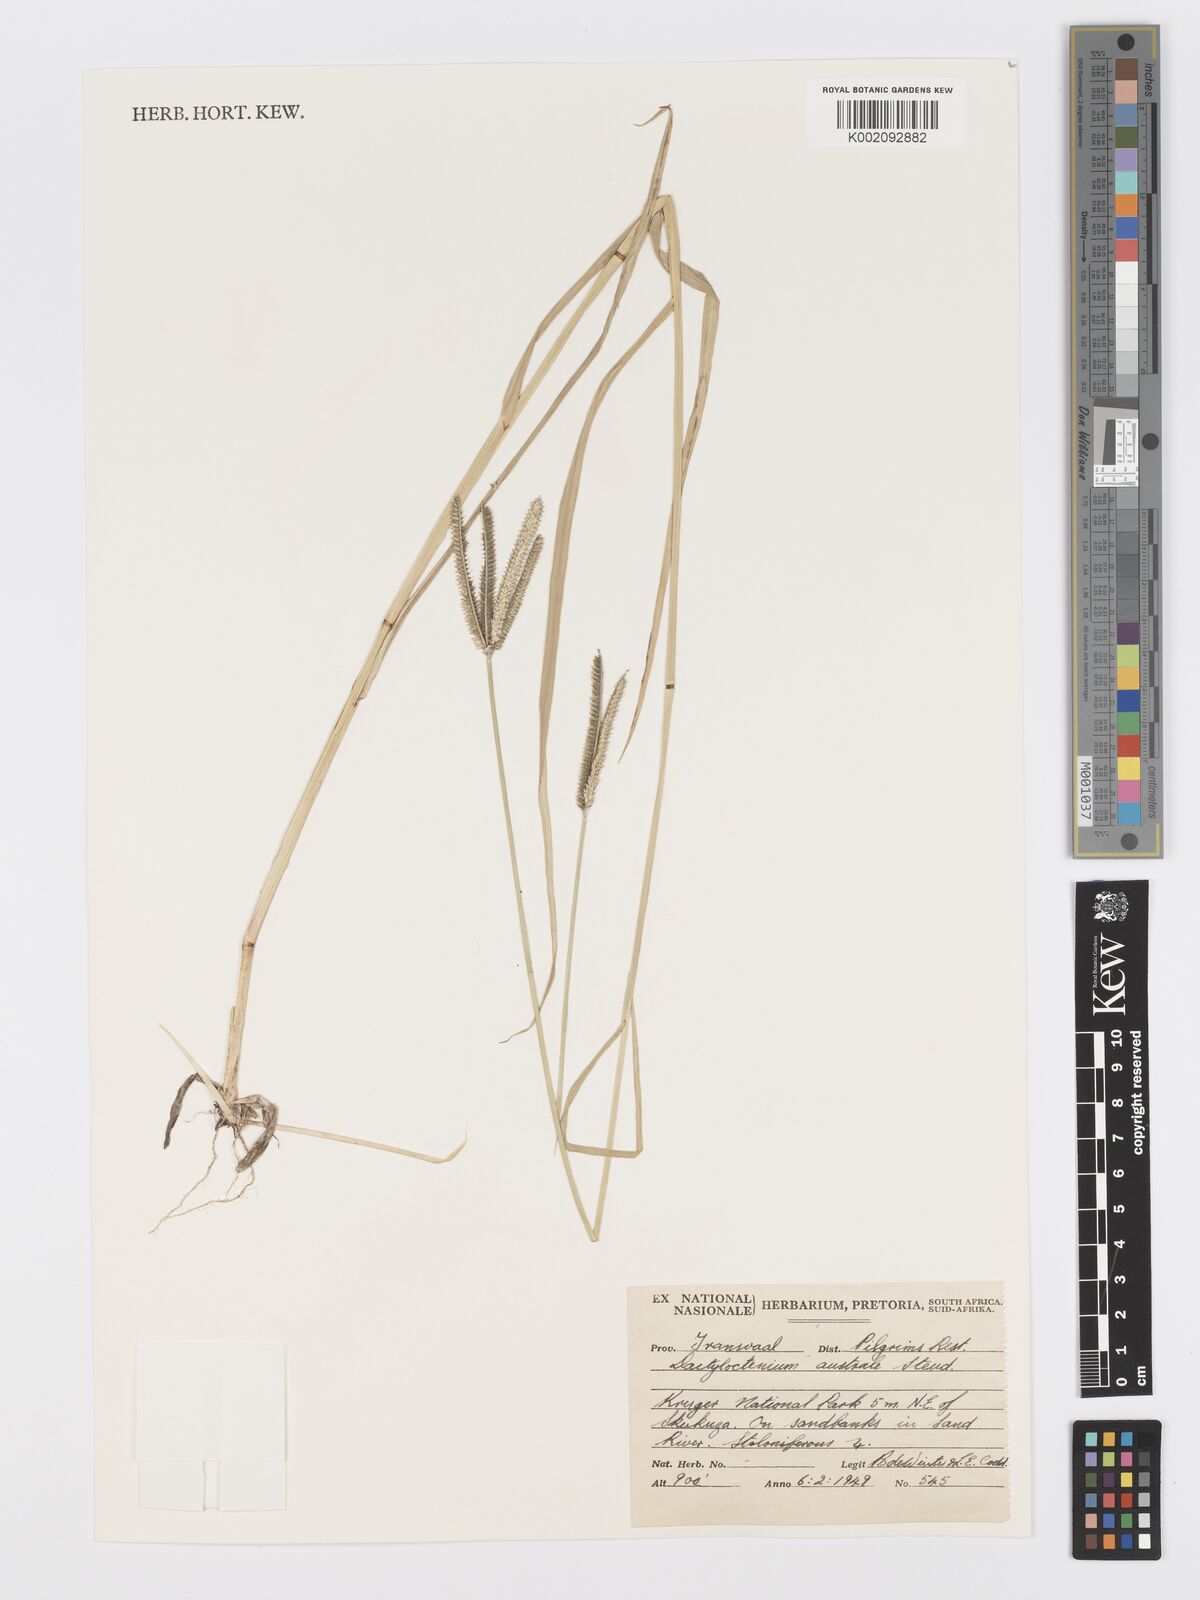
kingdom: Plantae
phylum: Tracheophyta
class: Liliopsida
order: Poales
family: Poaceae
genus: Dactyloctenium
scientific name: Dactyloctenium australe
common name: Durban grass
